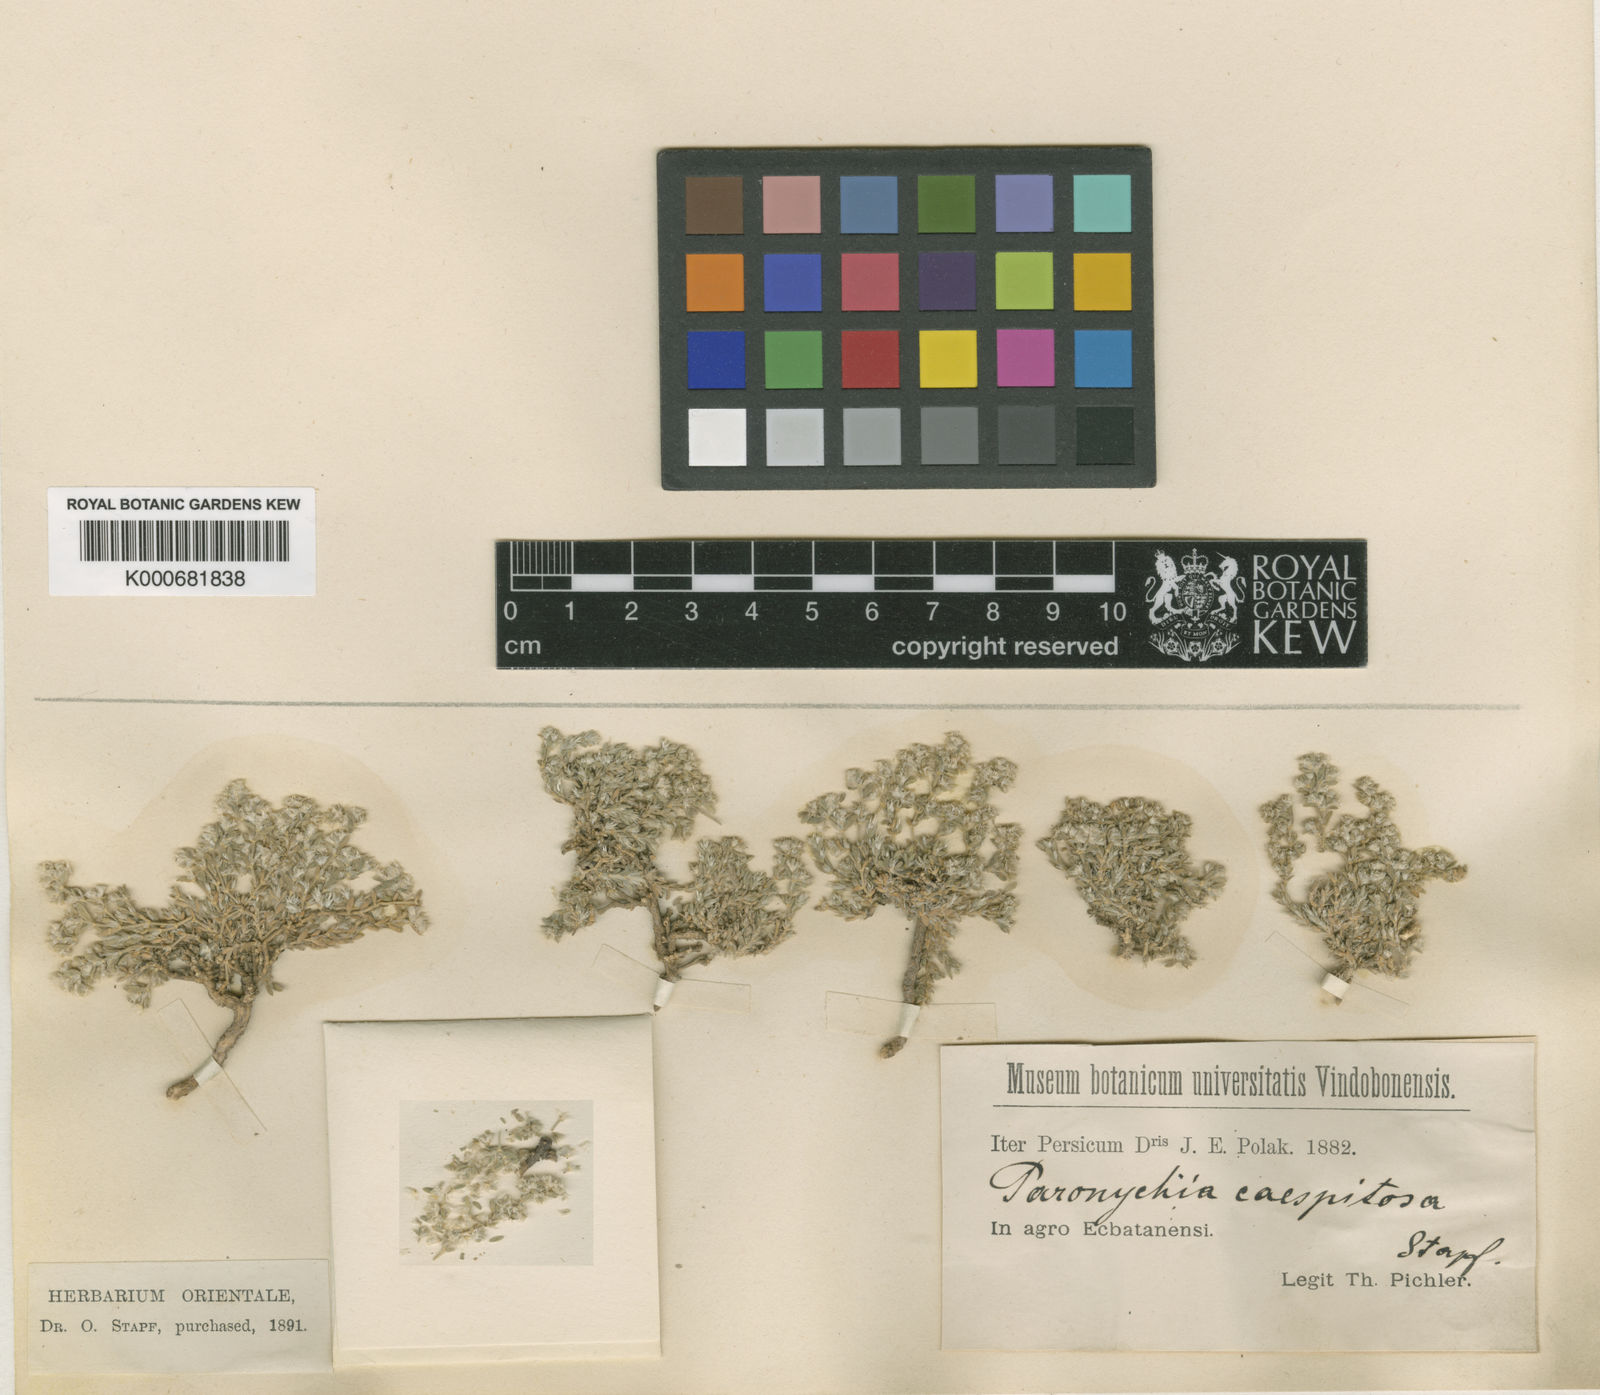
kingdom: Plantae
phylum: Tracheophyta
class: Magnoliopsida
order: Caryophyllales
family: Caryophyllaceae
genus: Paronychia
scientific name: Paronychia caespitosa
